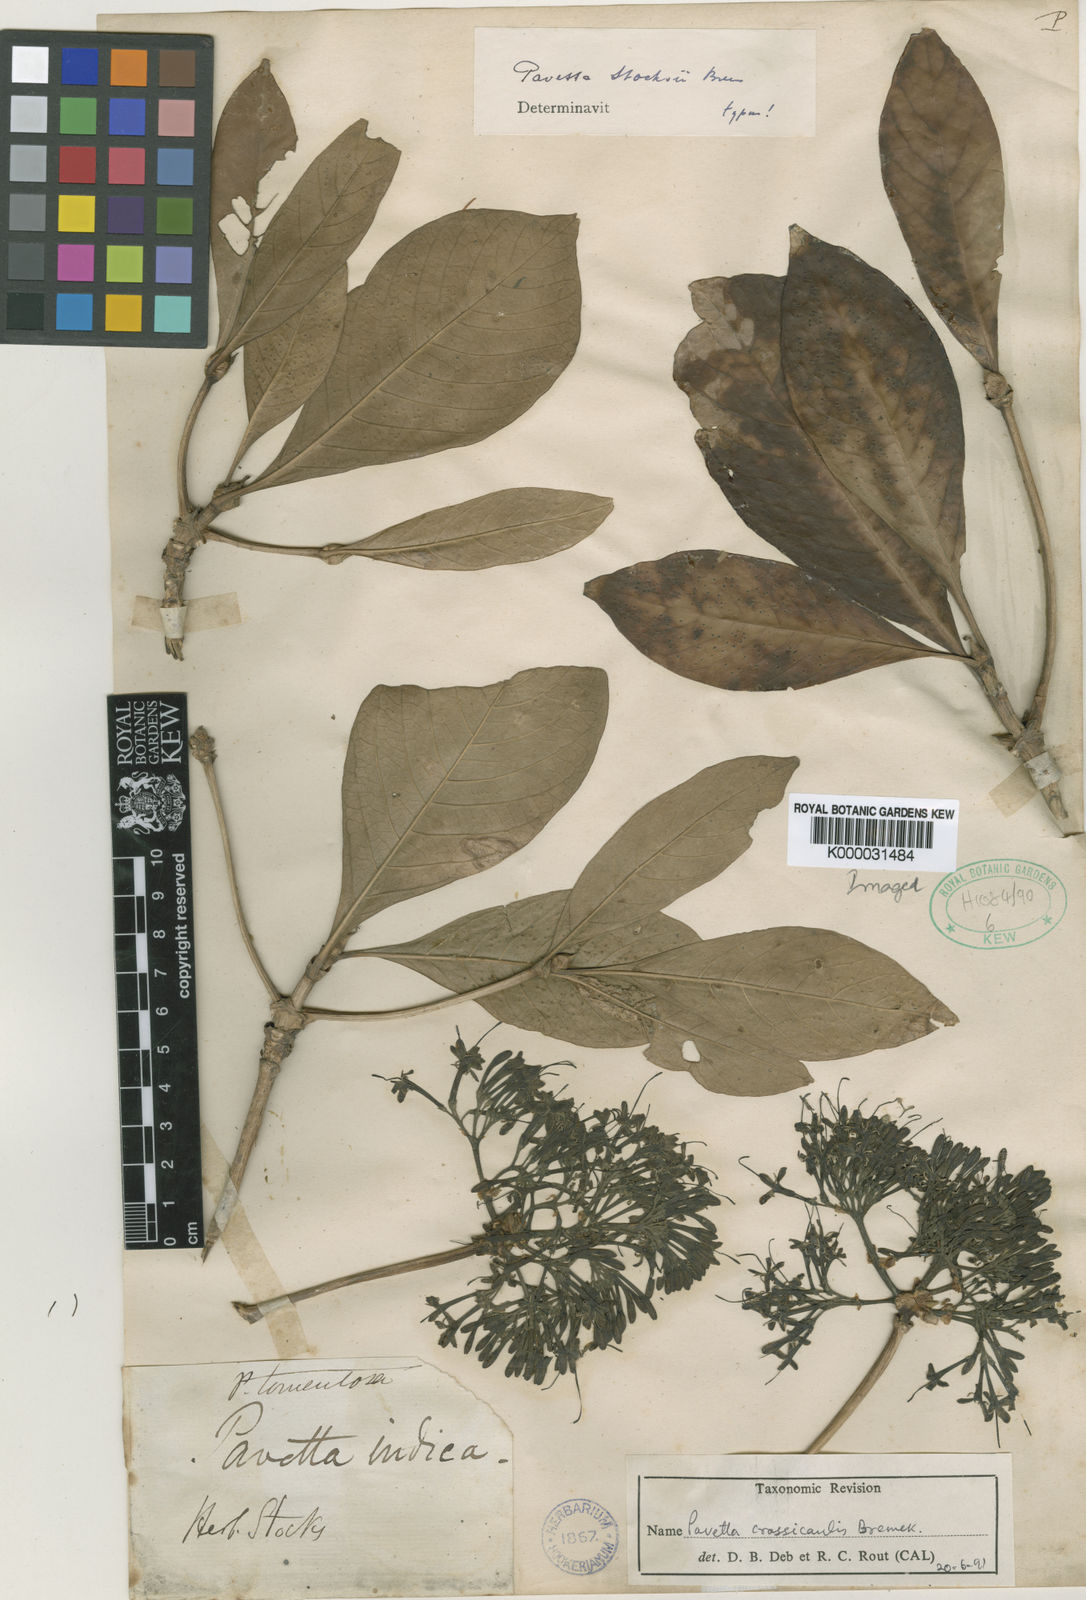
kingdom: Plantae
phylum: Tracheophyta
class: Magnoliopsida
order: Gentianales
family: Rubiaceae
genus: Pavetta
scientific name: Pavetta crassicaulis
